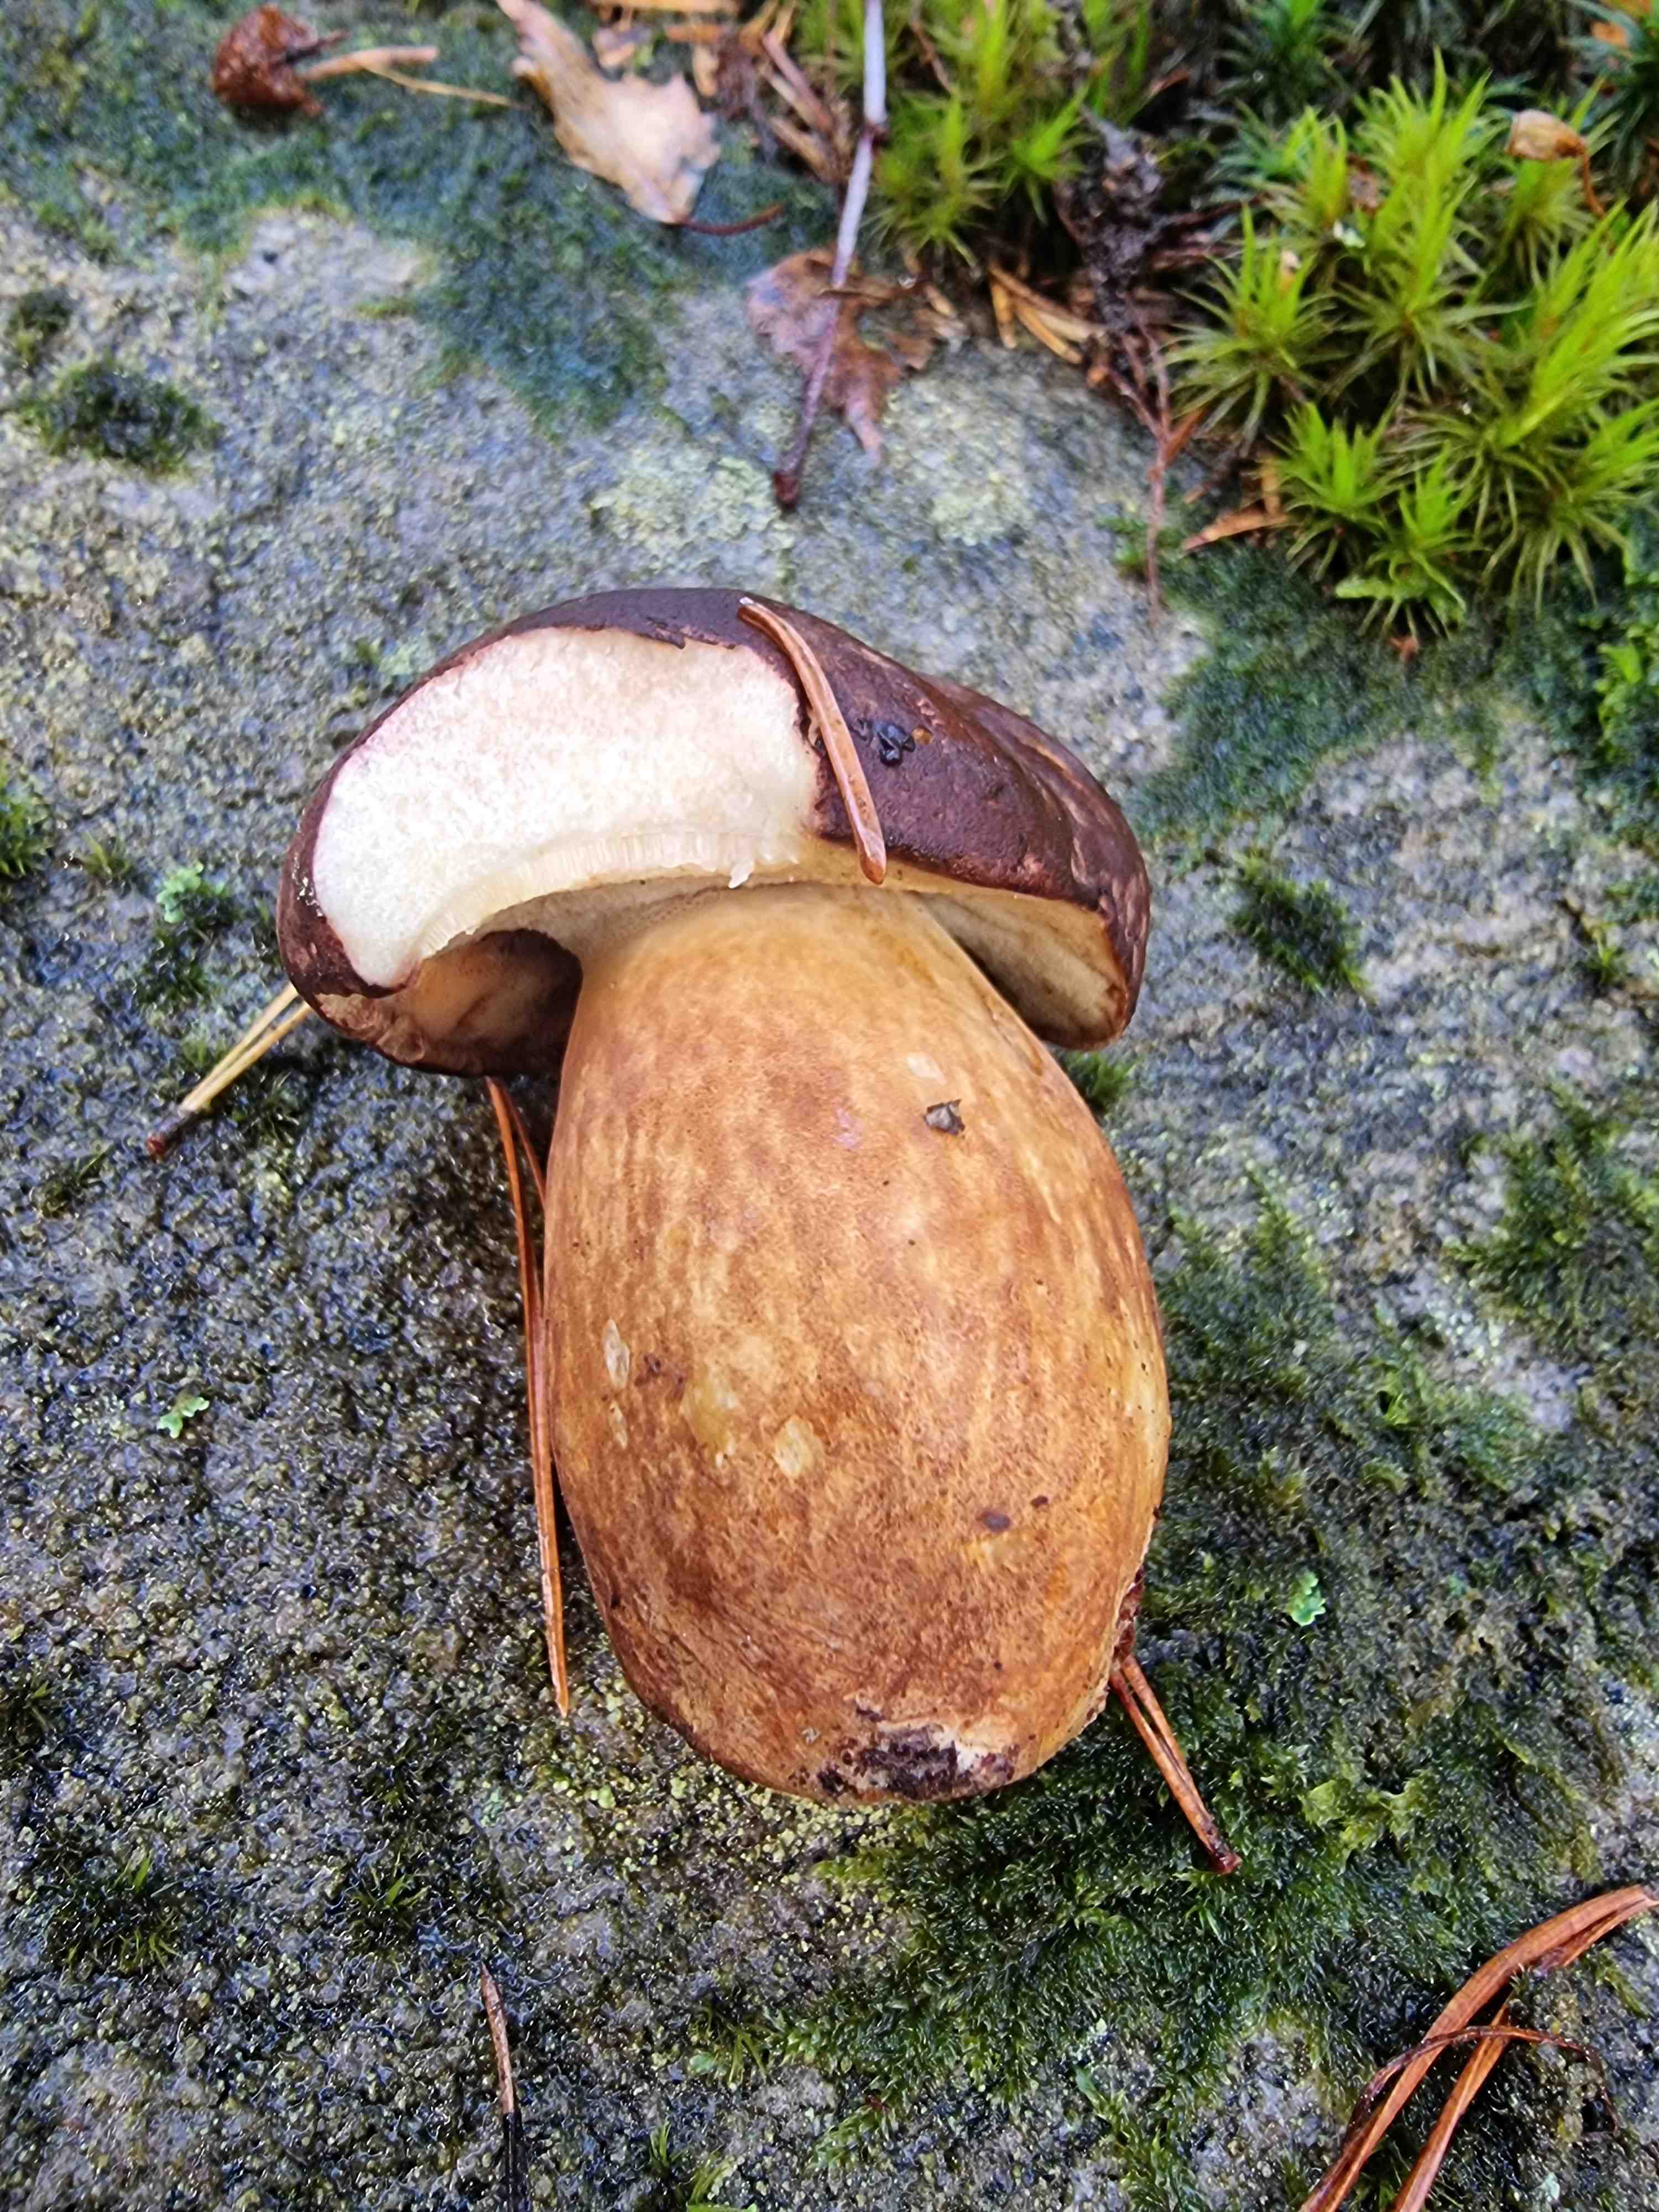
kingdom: Fungi
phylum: Basidiomycota
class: Agaricomycetes
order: Boletales
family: Boletaceae
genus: Imleria
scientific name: Imleria badia
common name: brunstokket rørhat
